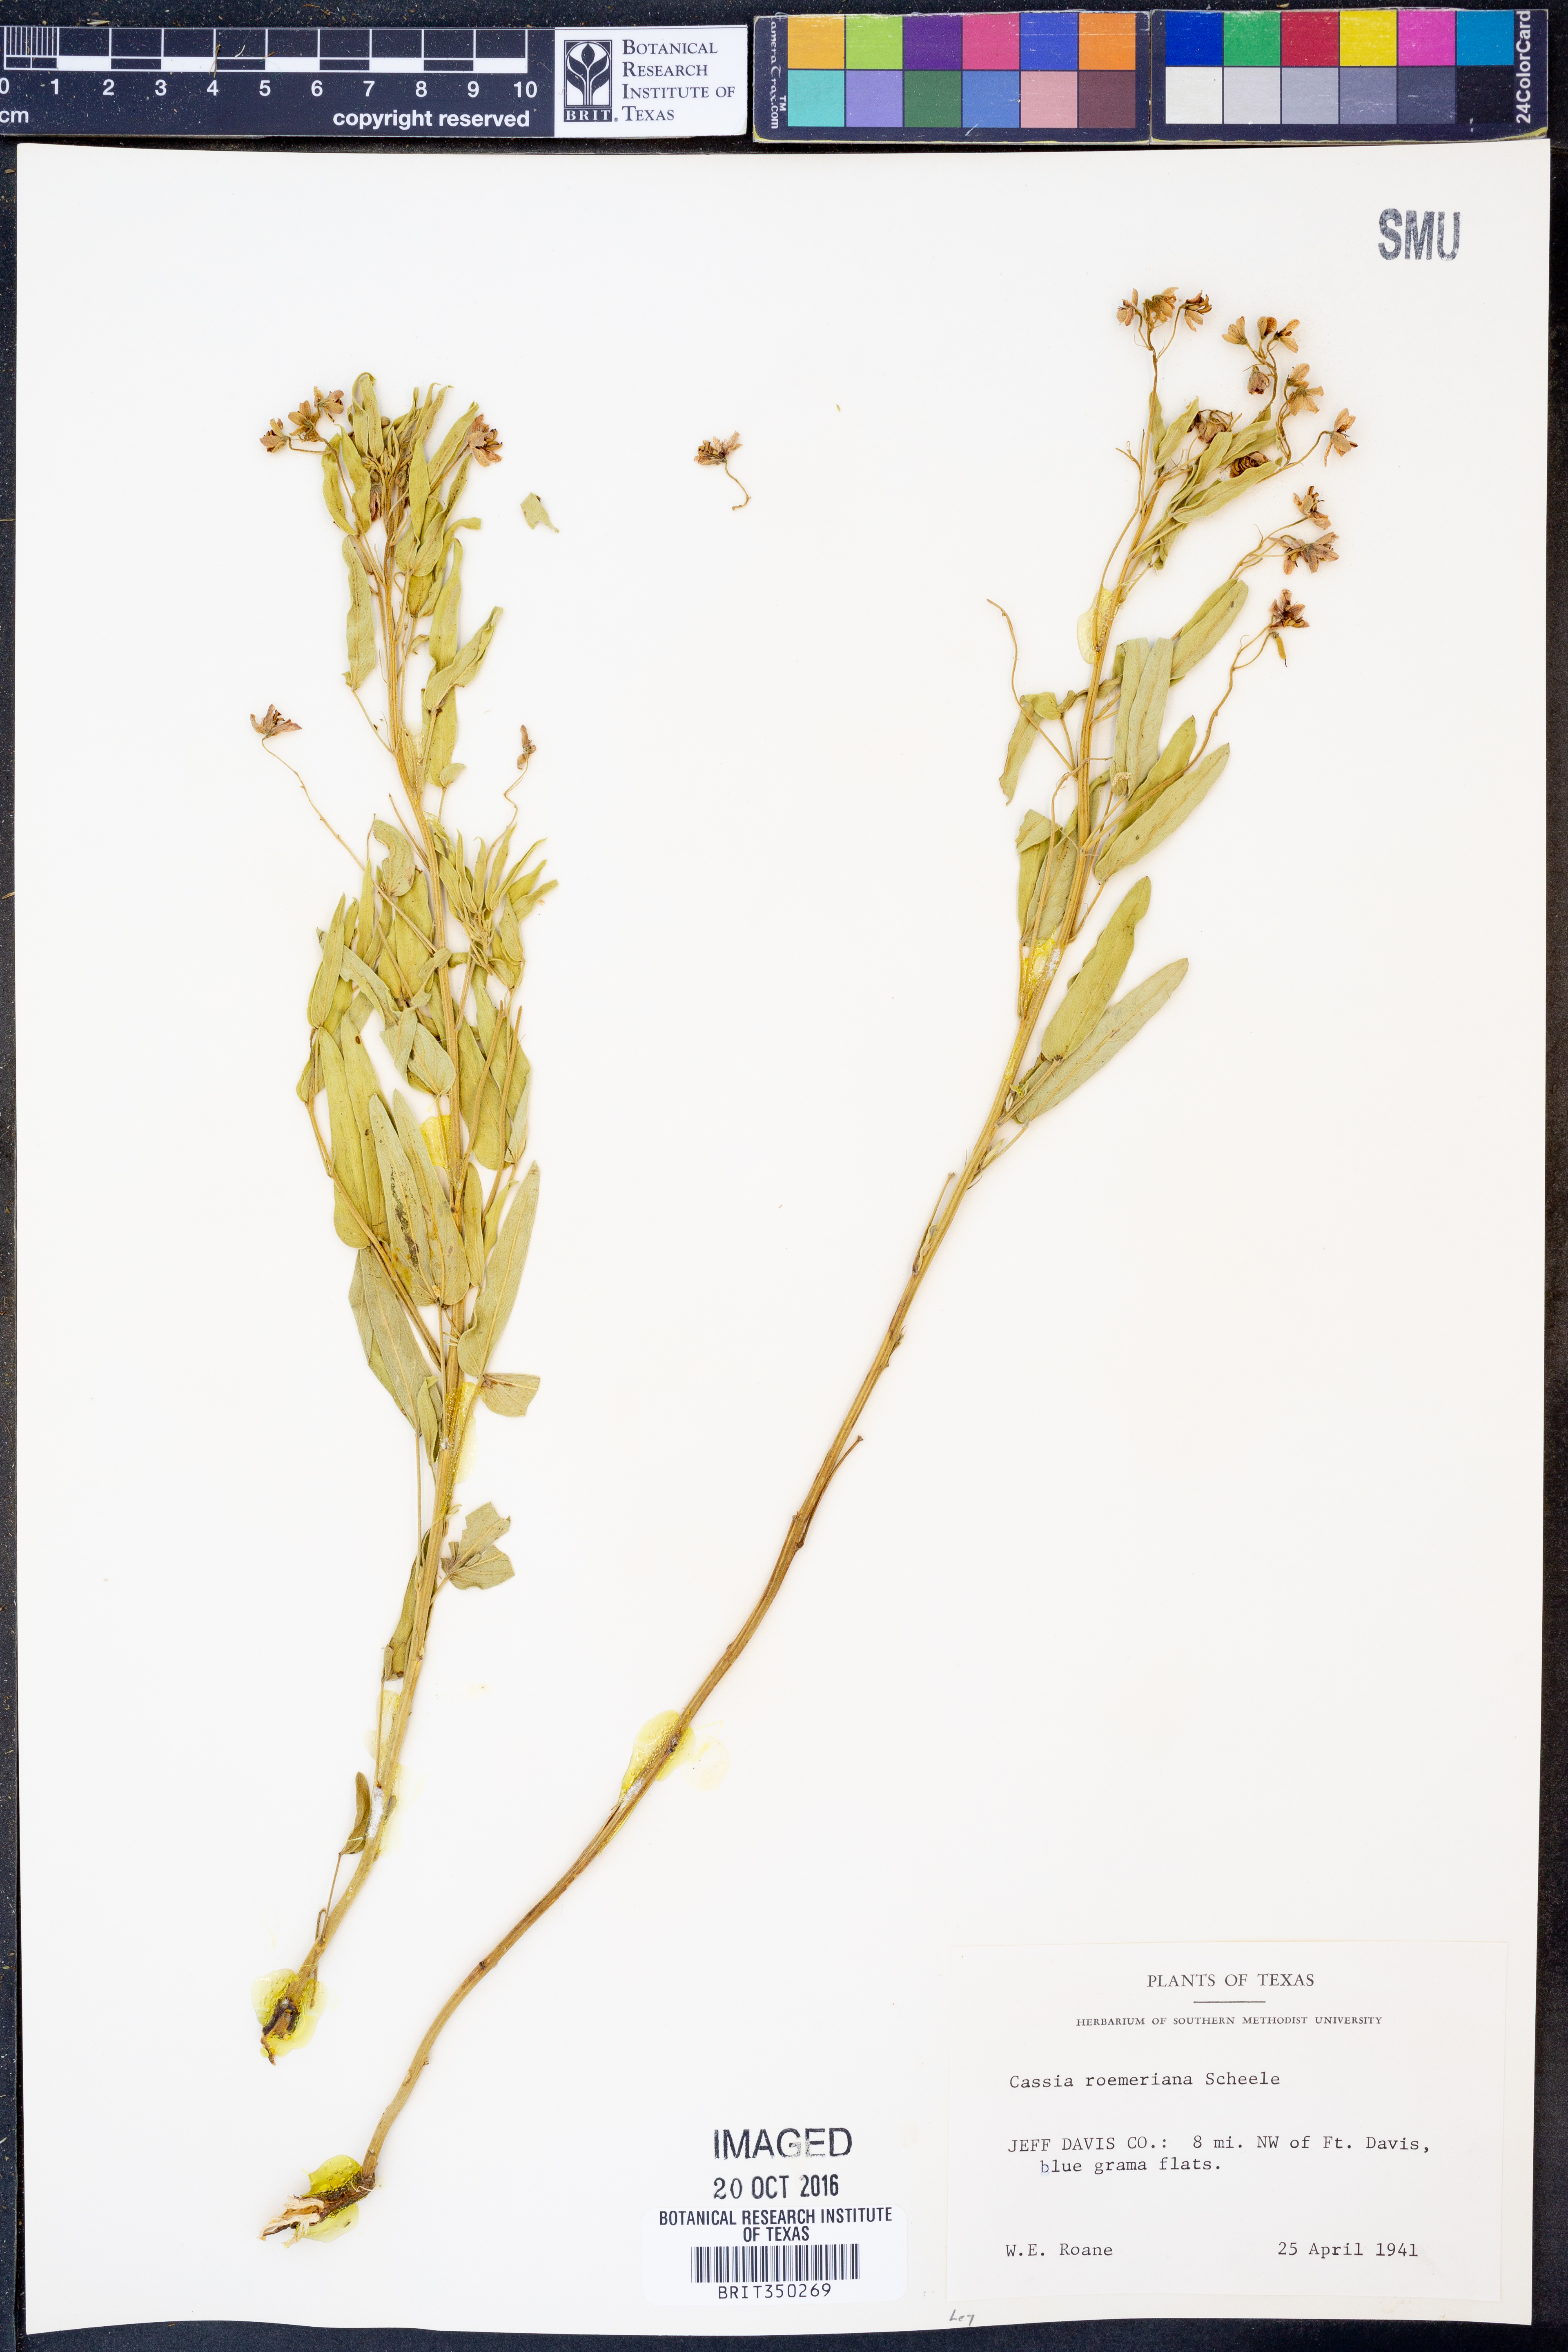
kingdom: Plantae
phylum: Tracheophyta
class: Magnoliopsida
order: Fabales
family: Fabaceae
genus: Senna
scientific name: Senna roemeriana
